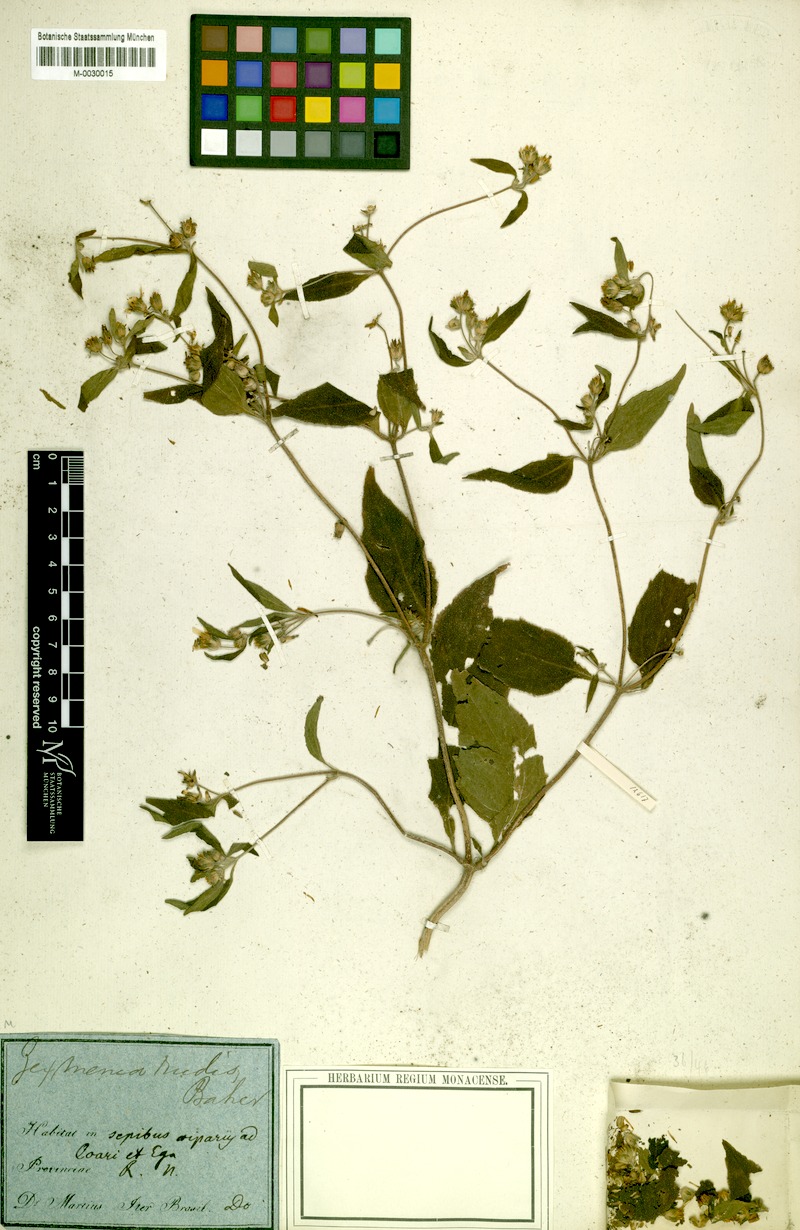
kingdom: Plantae
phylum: Tracheophyta
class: Magnoliopsida
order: Asterales
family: Asteraceae
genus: Wedelia
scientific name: Wedelia rudis
